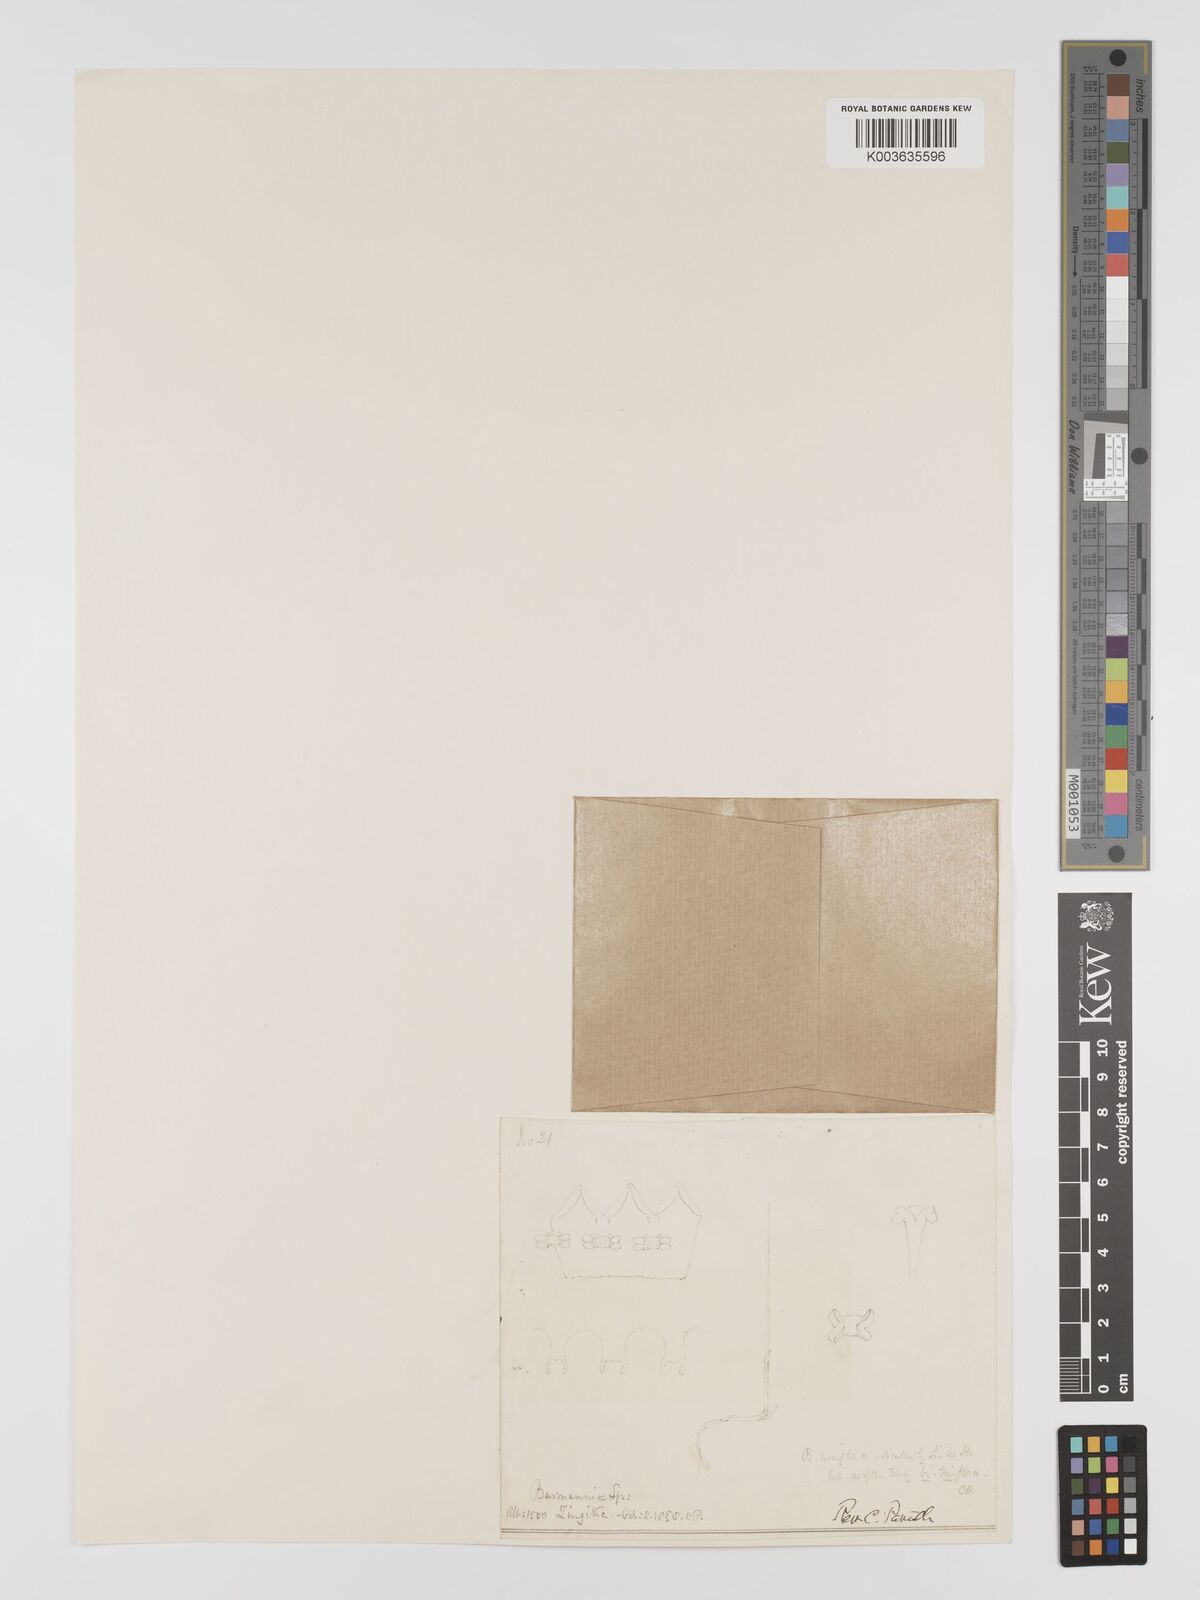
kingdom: Plantae
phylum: Tracheophyta
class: Liliopsida
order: Dioscoreales
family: Burmanniaceae
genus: Burmannia
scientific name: Burmannia candida
